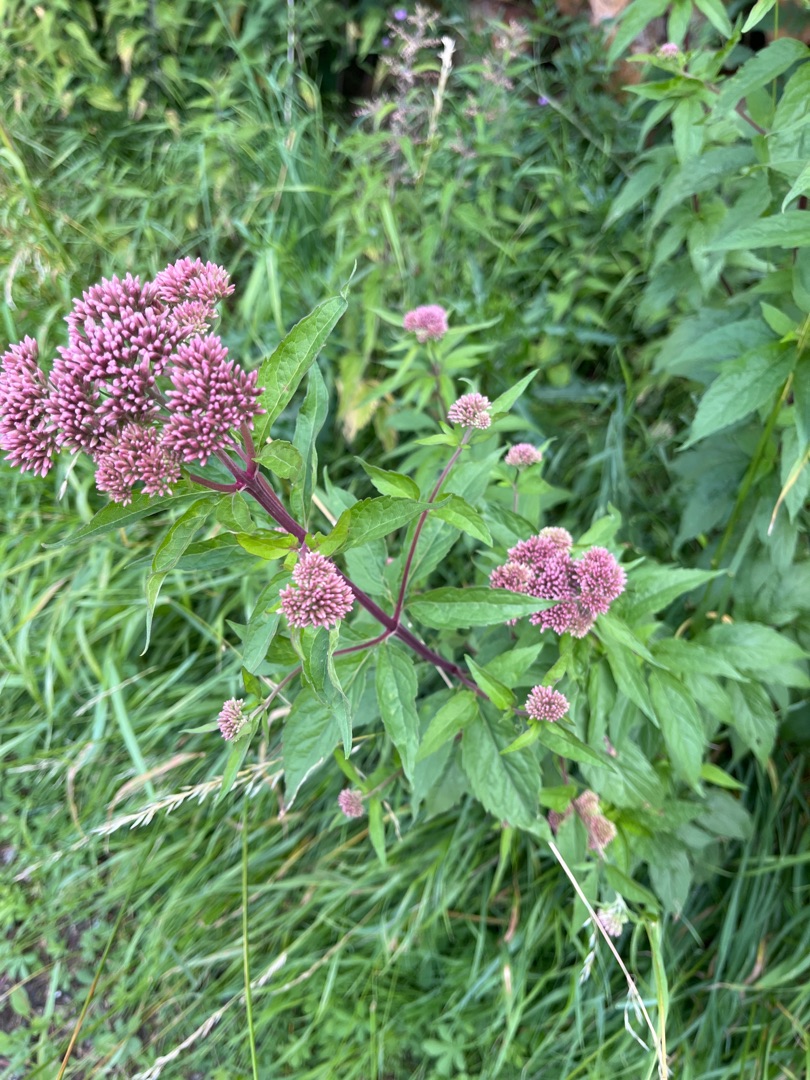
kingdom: Plantae
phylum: Tracheophyta
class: Magnoliopsida
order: Asterales
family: Asteraceae
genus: Eupatorium
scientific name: Eupatorium cannabinum
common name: Hjortetrøst
